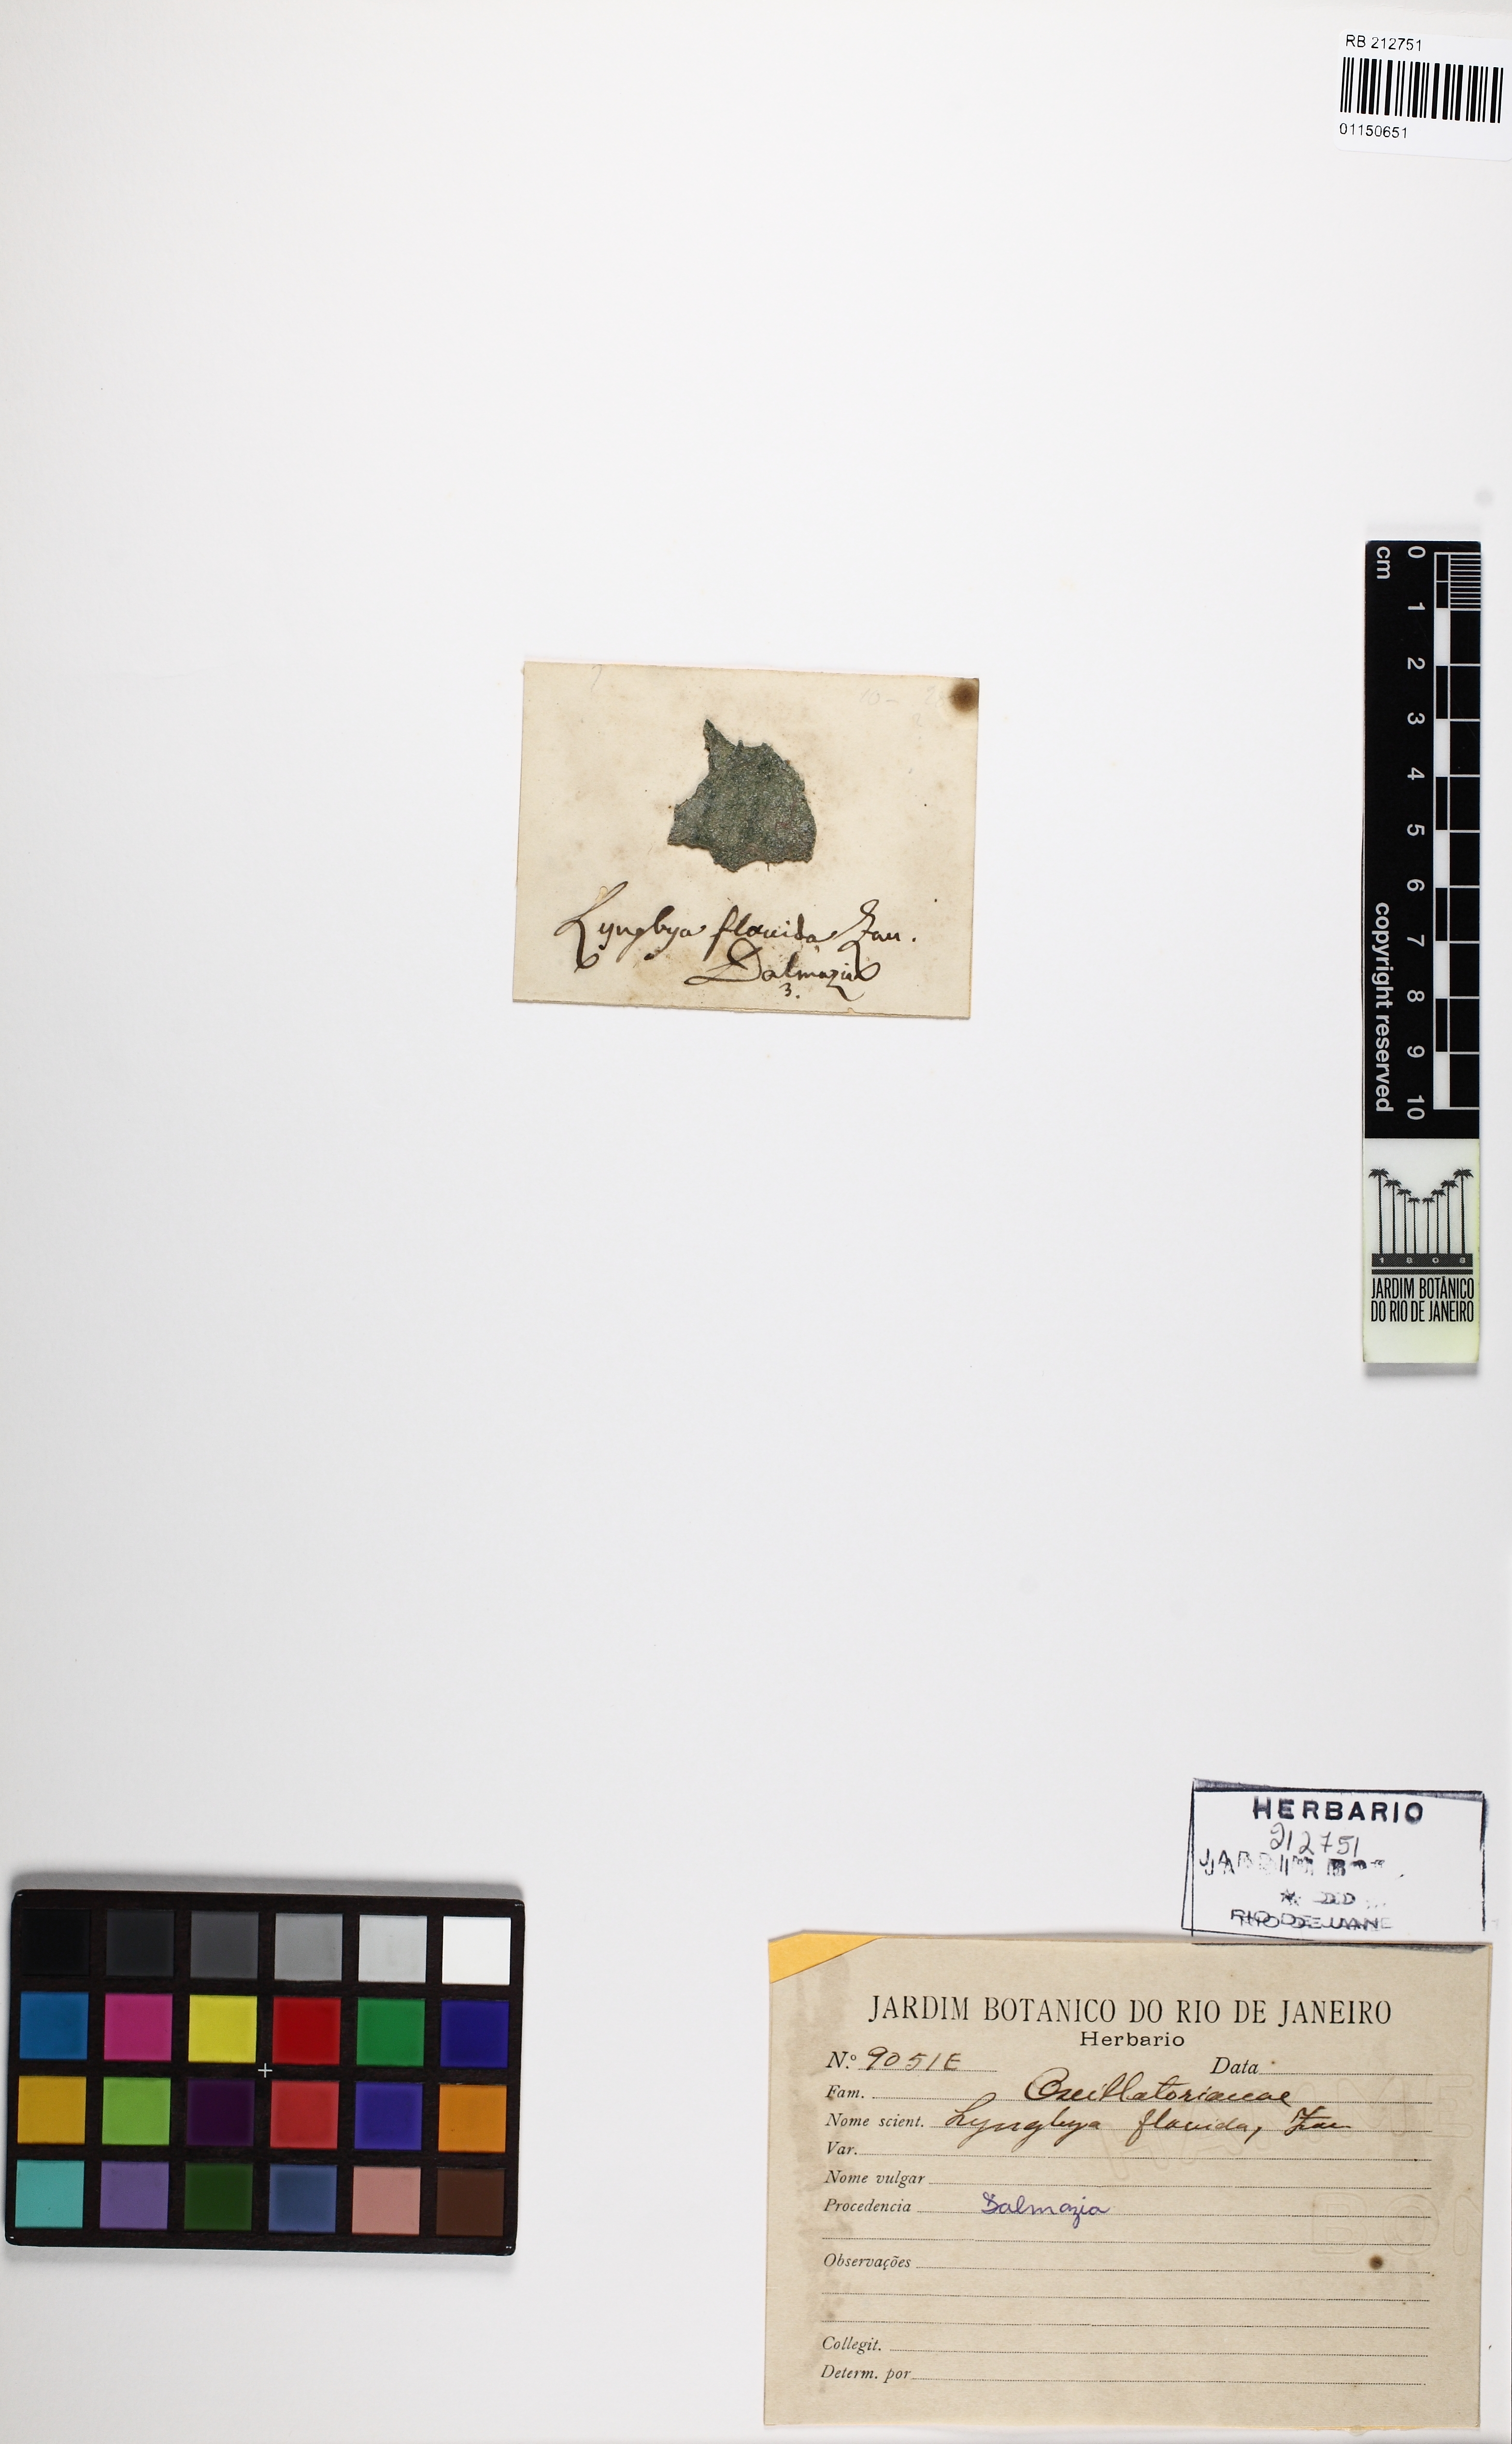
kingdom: Bacteria
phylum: Cyanobacteria
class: Cyanobacteriia
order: Cyanobacteriales
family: Oscillatoriaceae
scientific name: Oscillatoriaceae
